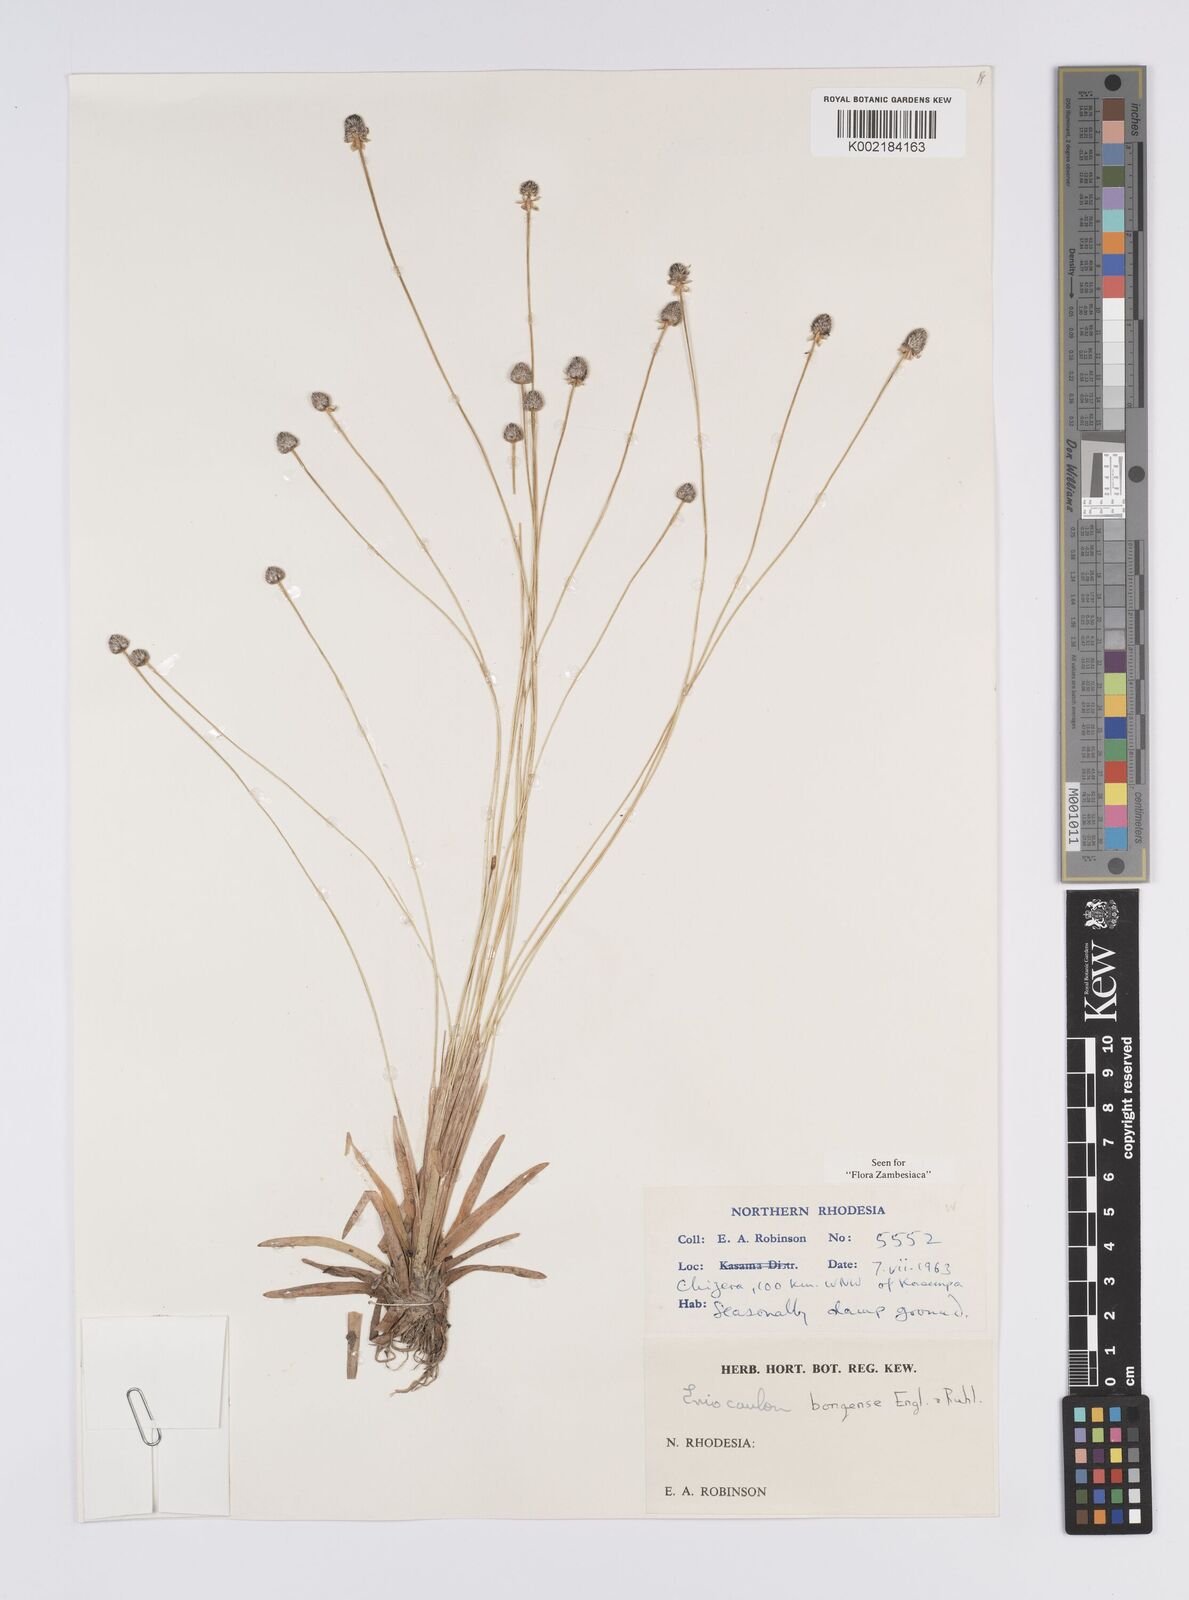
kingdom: Plantae
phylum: Tracheophyta
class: Liliopsida
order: Poales
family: Eriocaulaceae
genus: Eriocaulon
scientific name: Eriocaulon bongense
